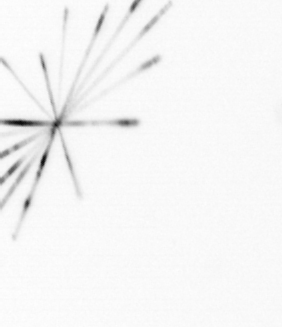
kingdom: Chromista
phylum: Ochrophyta
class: Bacillariophyceae
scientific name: Bacillariophyceae
